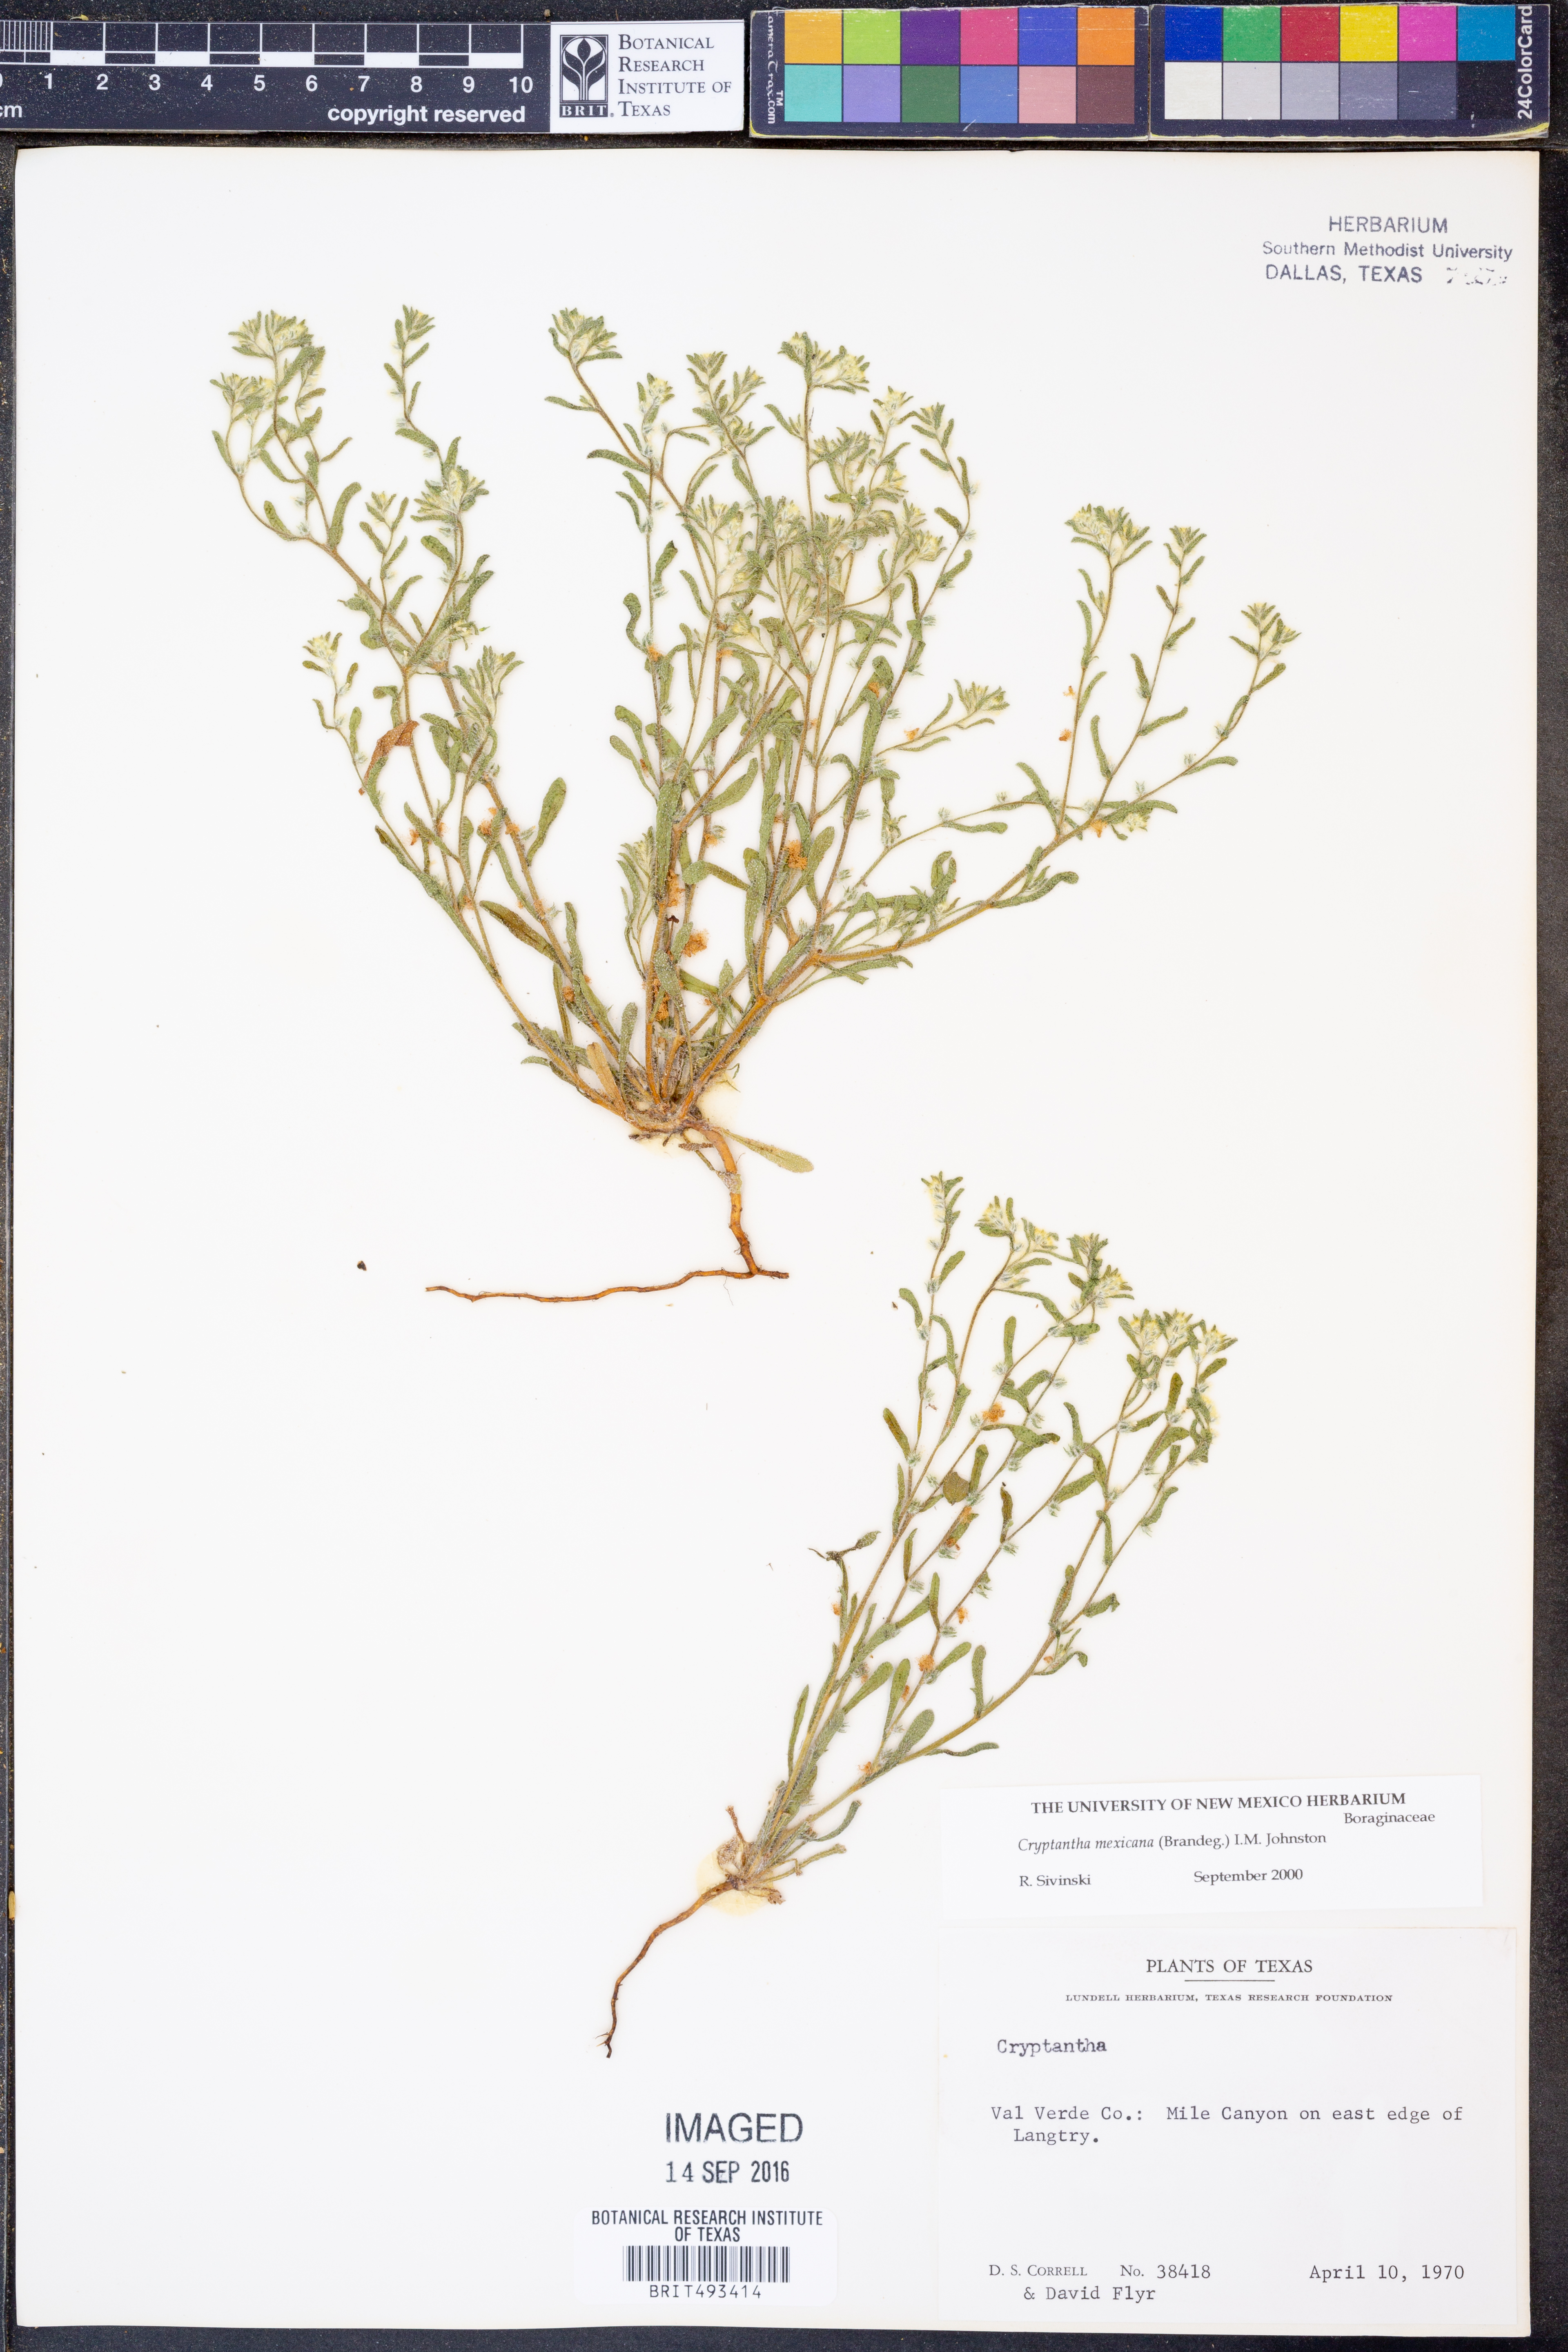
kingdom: Plantae
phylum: Tracheophyta
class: Magnoliopsida
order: Boraginales
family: Boraginaceae
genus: Johnstonella
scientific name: Johnstonella mexicana
